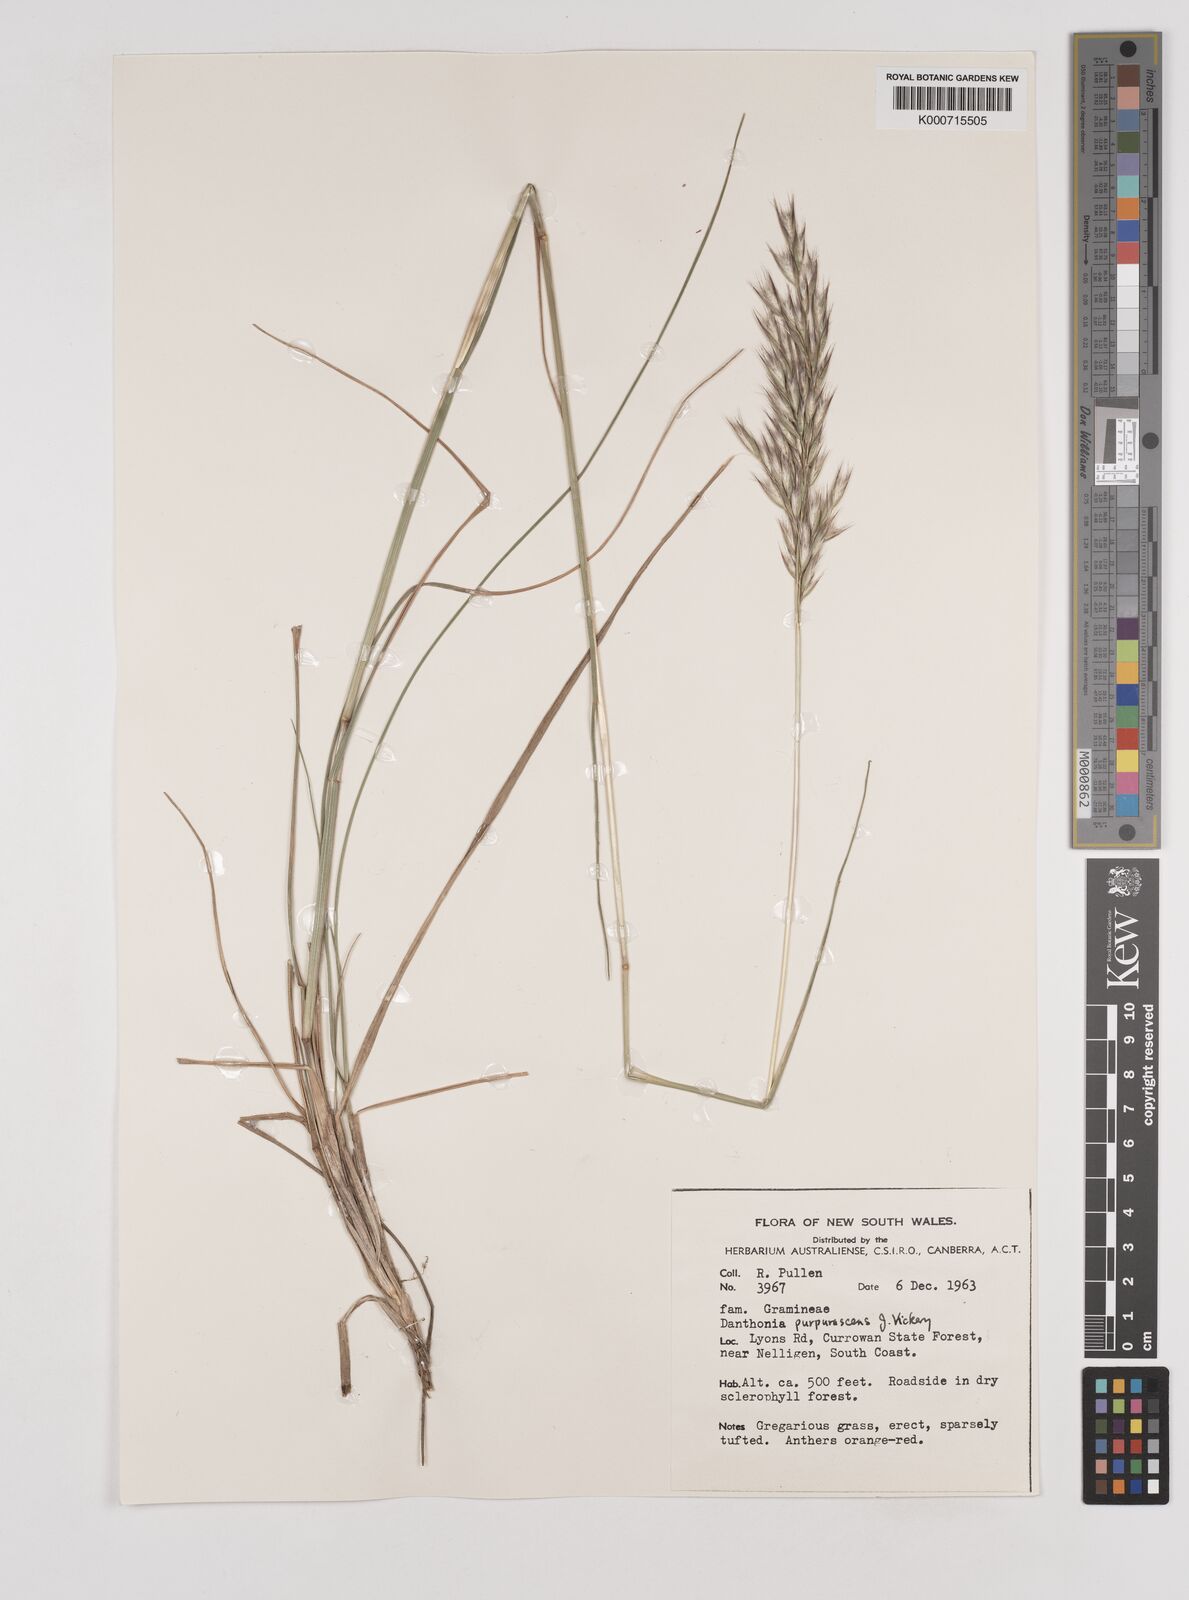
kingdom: Plantae
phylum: Tracheophyta
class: Liliopsida
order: Poales
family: Poaceae
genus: Rytidosperma
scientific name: Rytidosperma tenuius
